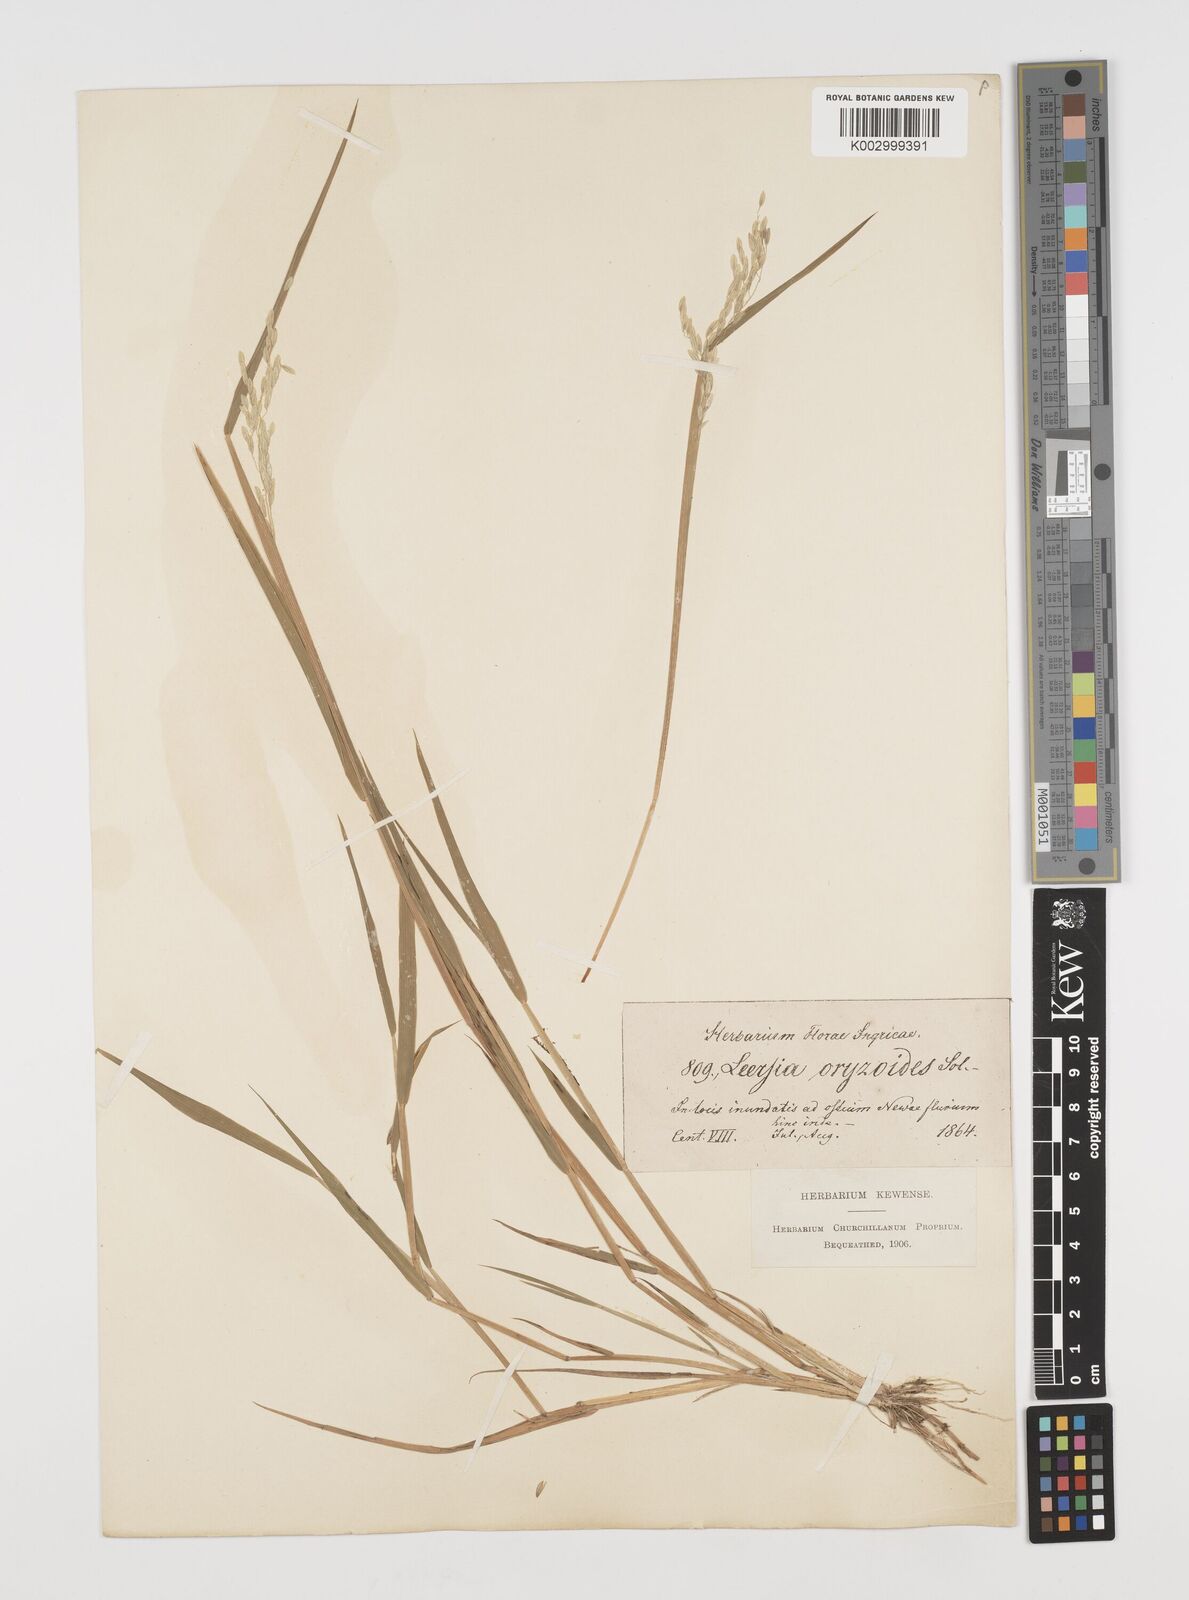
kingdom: Plantae
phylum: Tracheophyta
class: Liliopsida
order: Poales
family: Poaceae
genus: Leersia
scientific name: Leersia oryzoides
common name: Cut-grass
